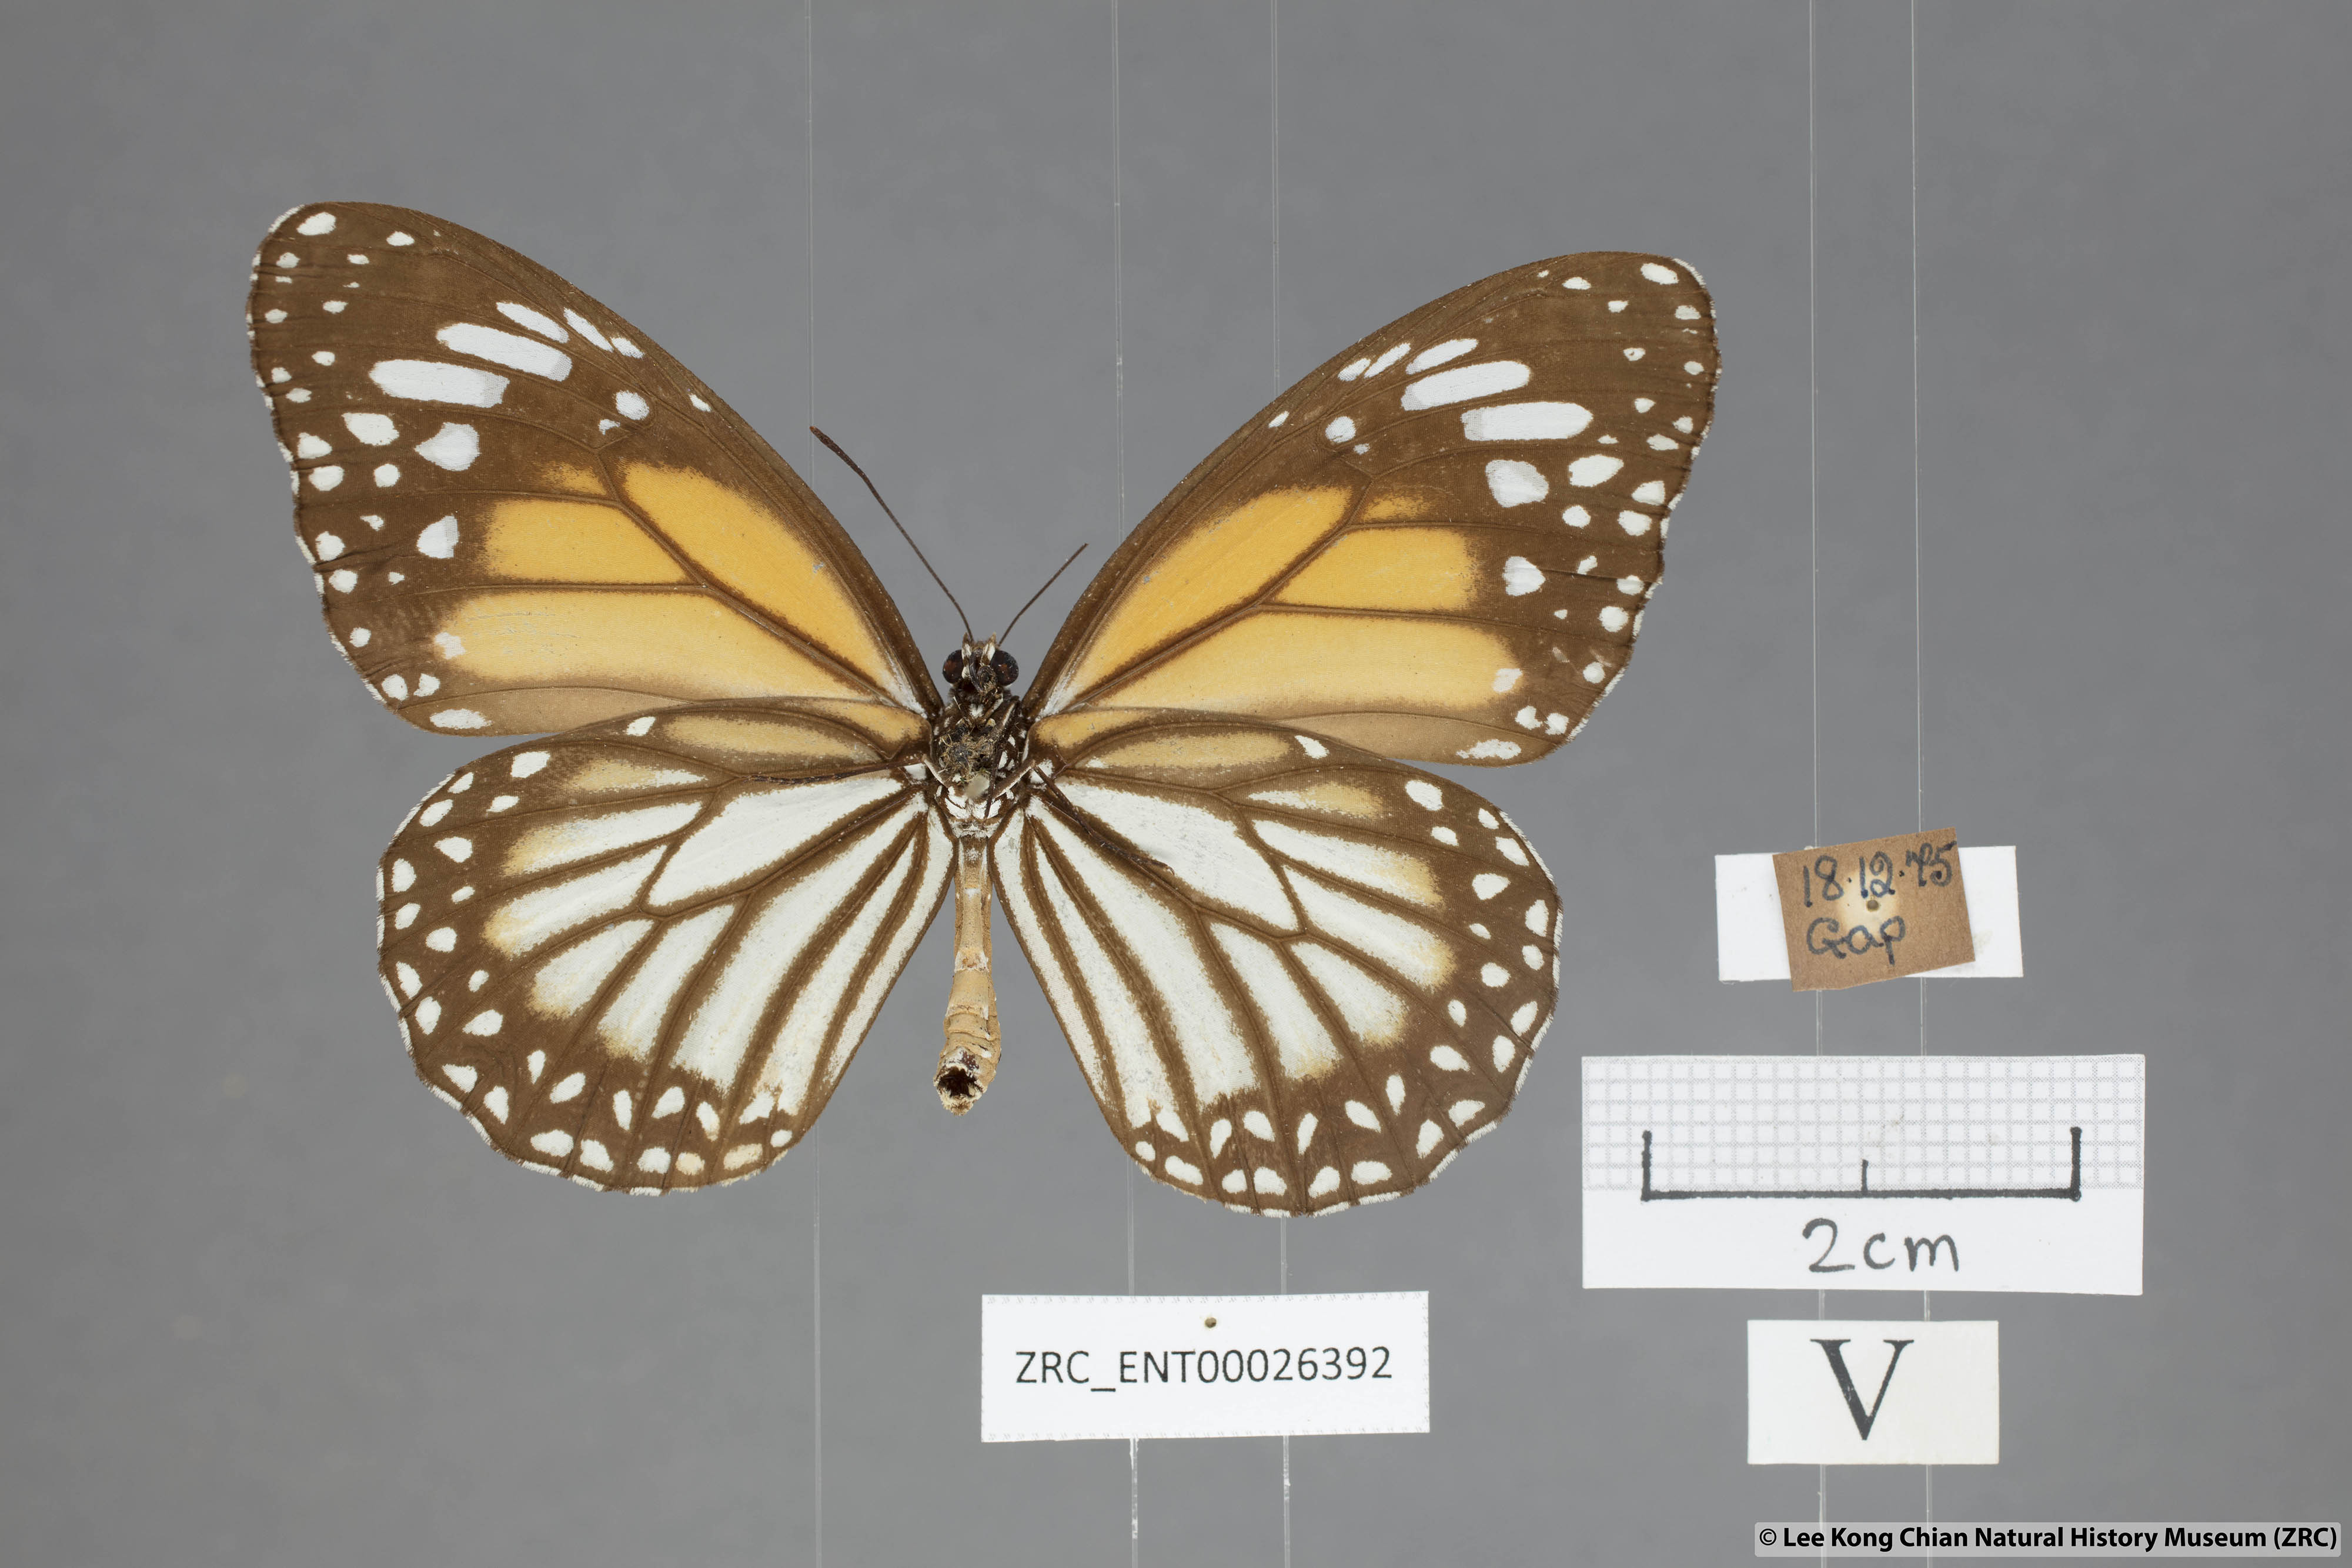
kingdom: Animalia
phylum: Arthropoda
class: Insecta
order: Lepidoptera
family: Nymphalidae
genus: Danaus
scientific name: Danaus melanippus
